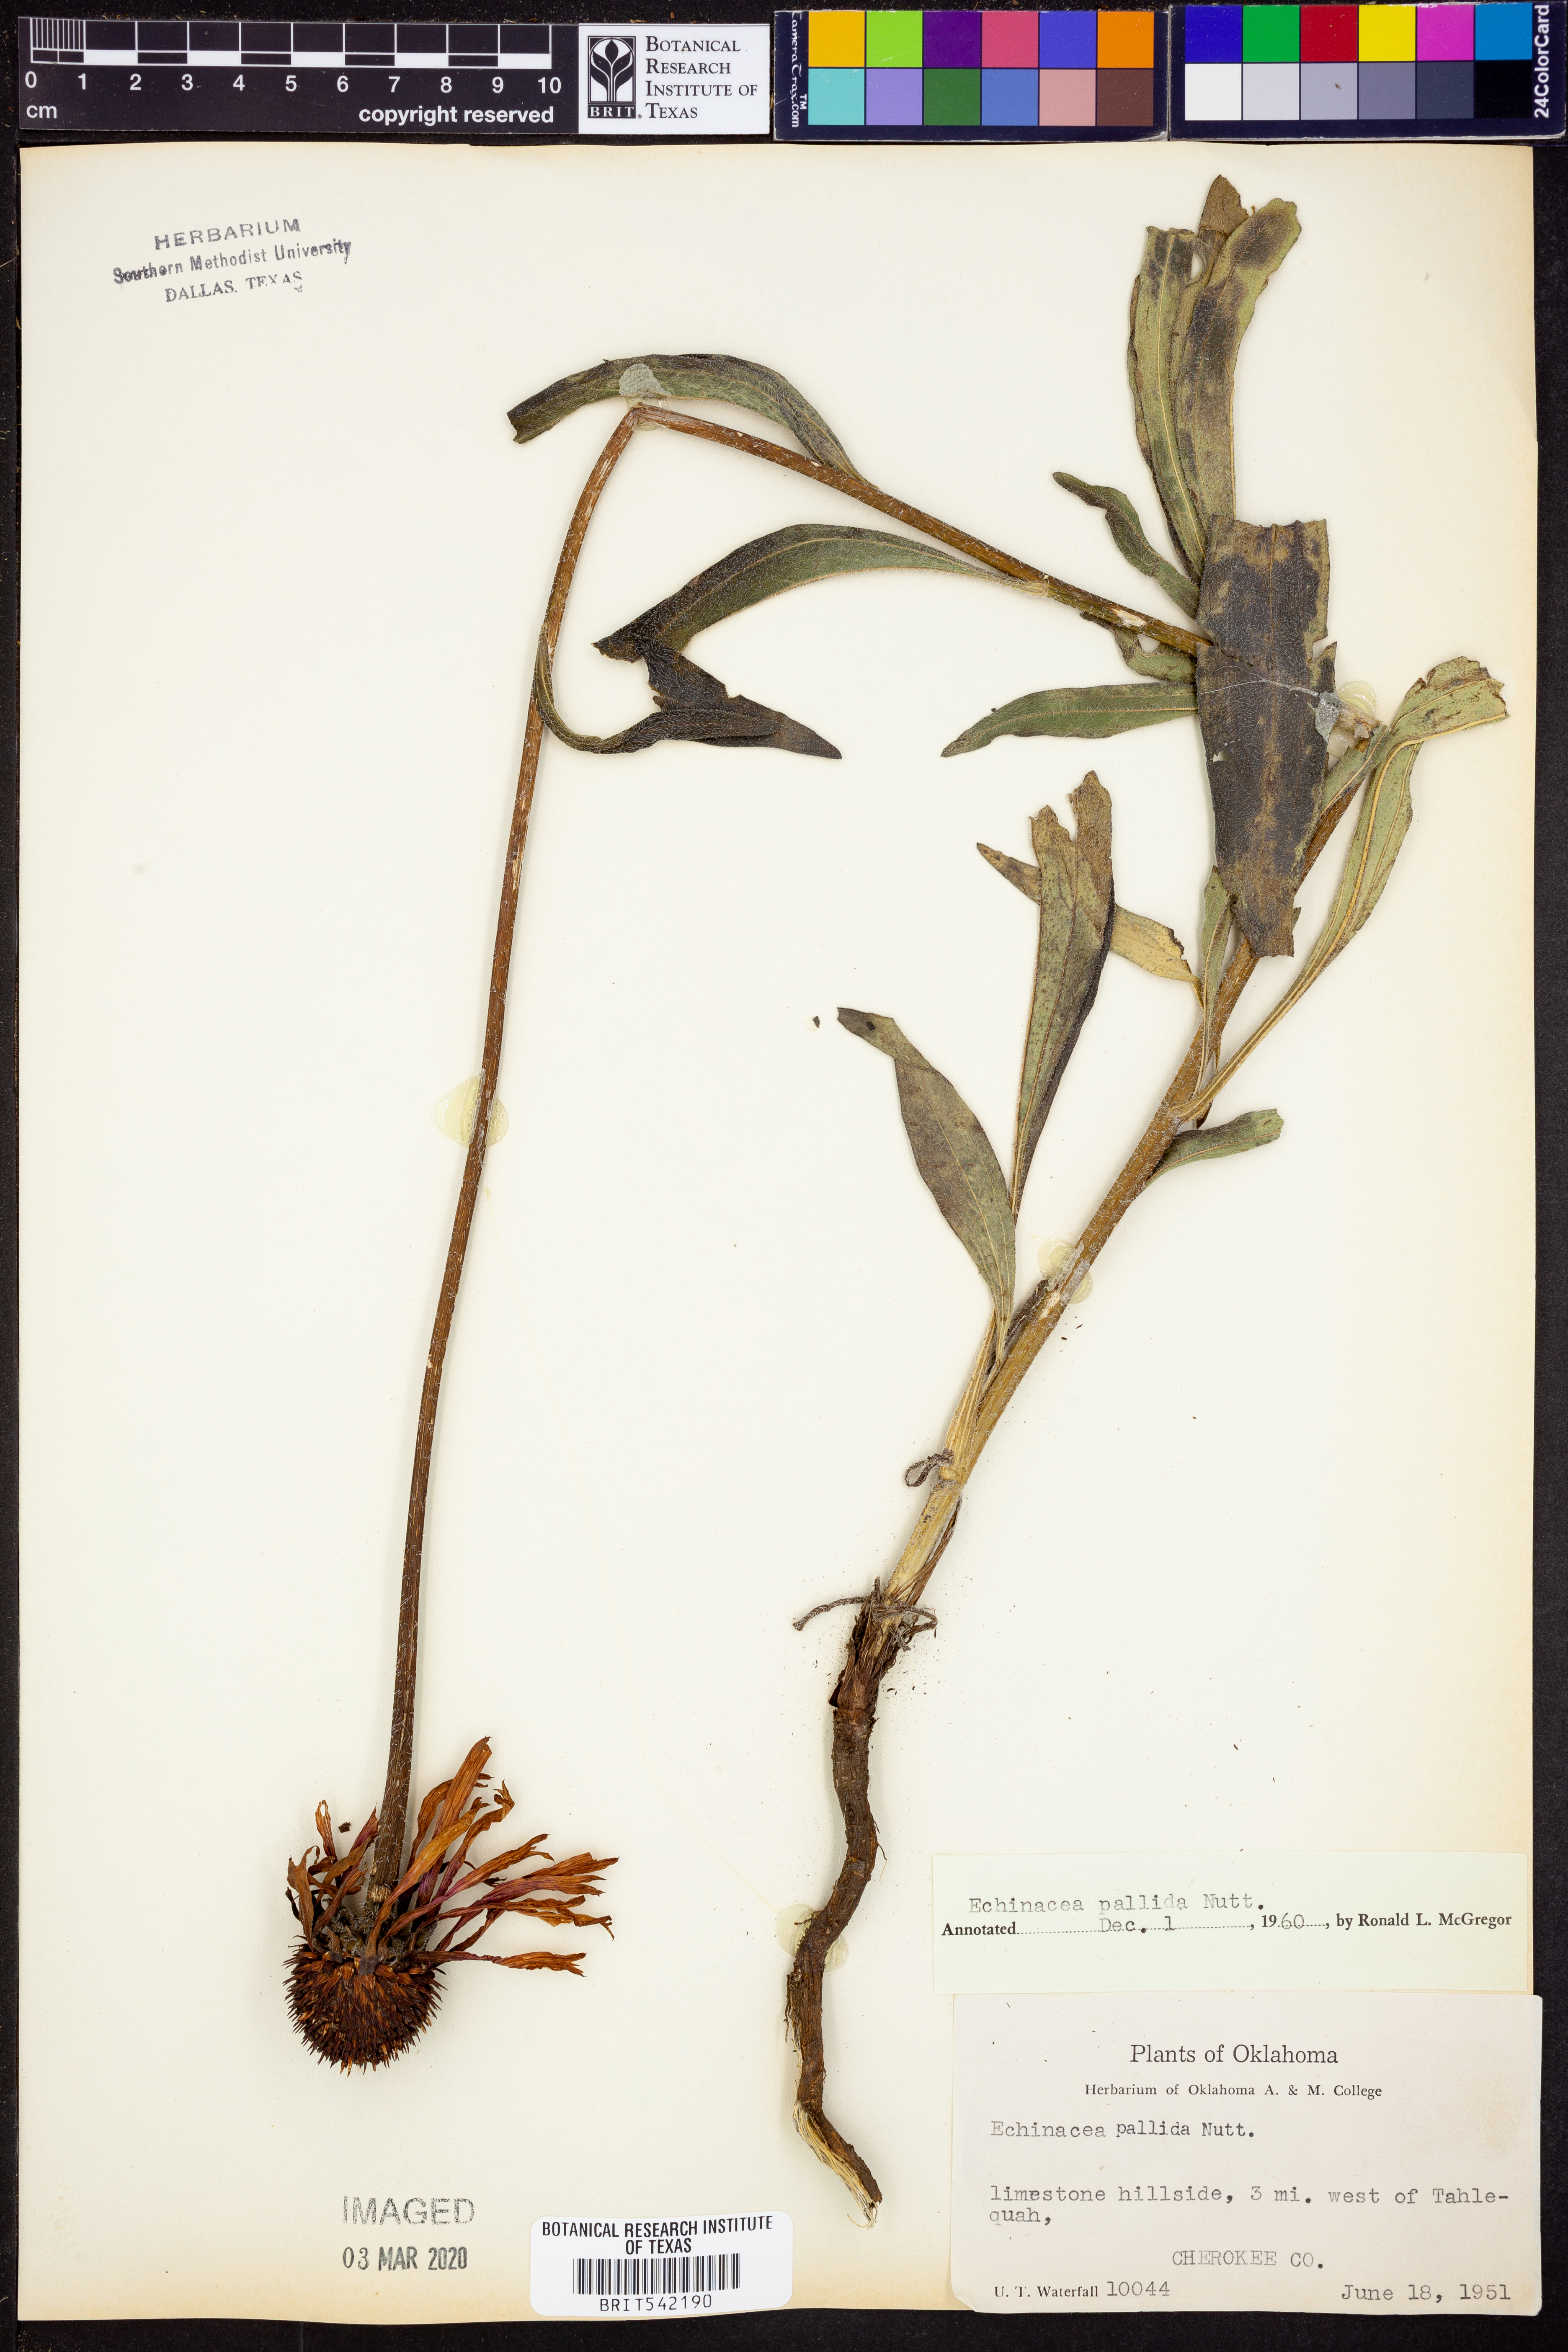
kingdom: Plantae
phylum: Tracheophyta
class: Magnoliopsida
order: Asterales
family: Asteraceae
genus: Echinacea
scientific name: Echinacea pallida
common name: Pale echinacea
